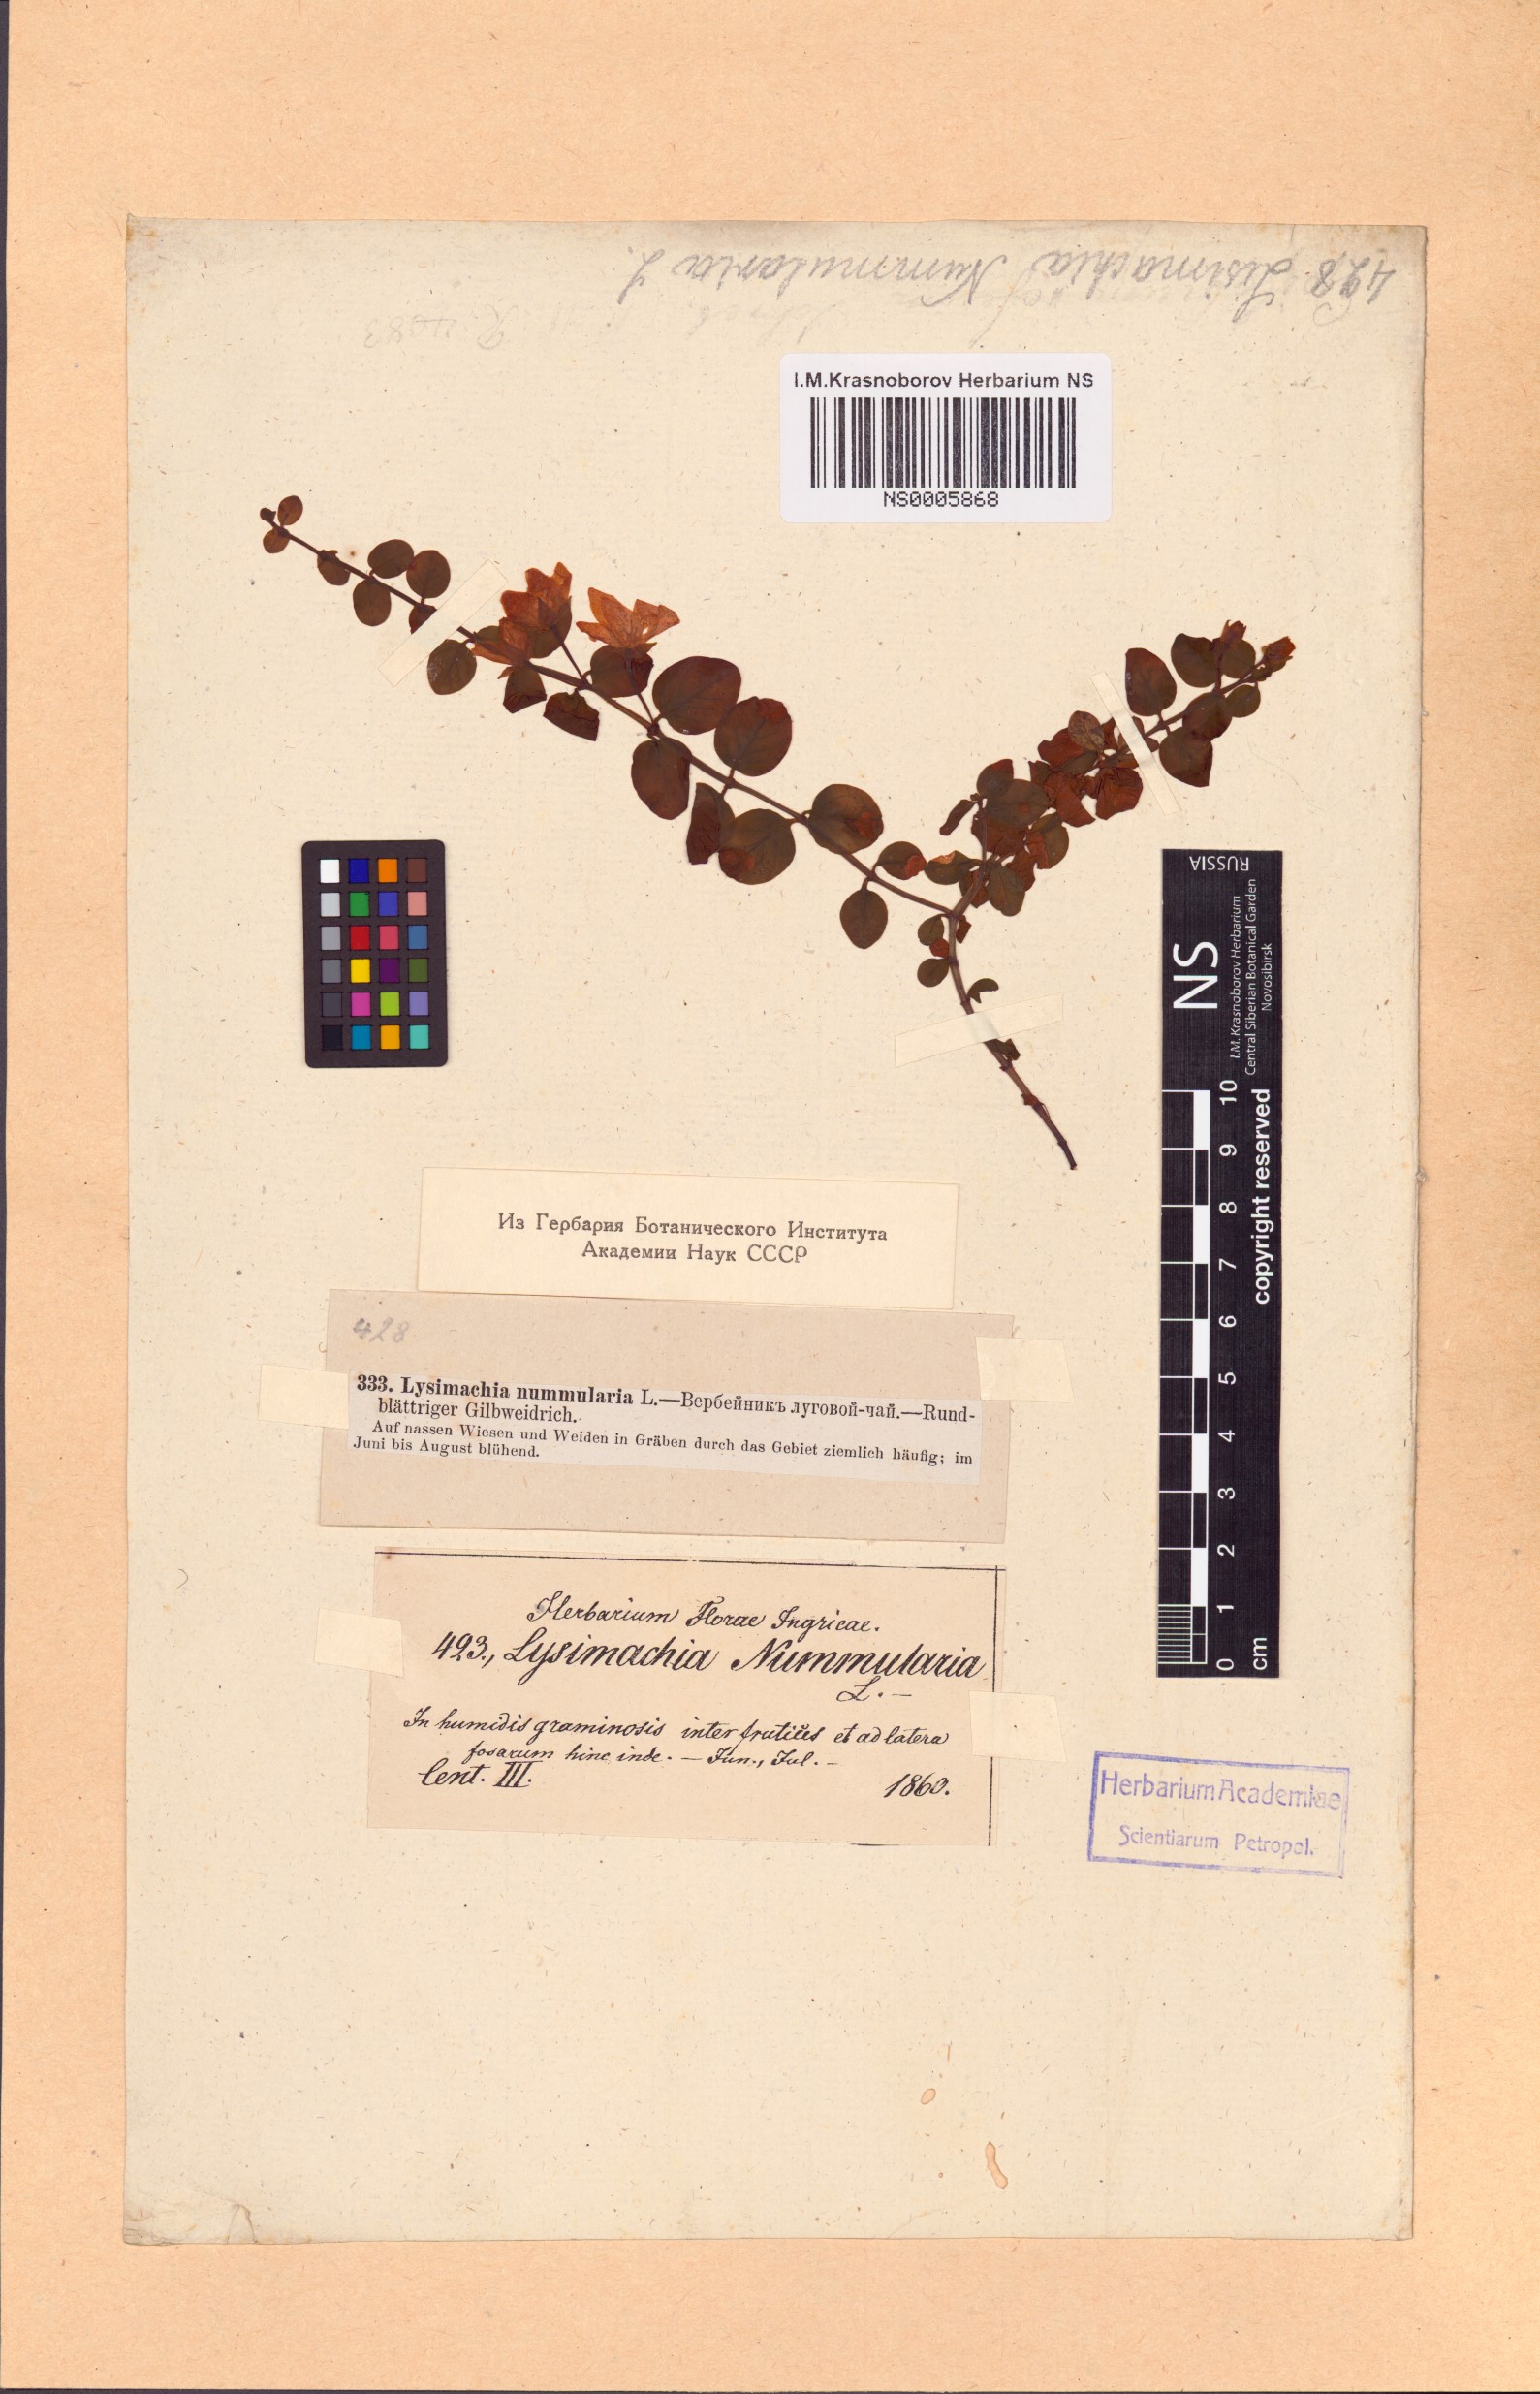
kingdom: Plantae
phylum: Tracheophyta
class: Magnoliopsida
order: Ericales
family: Primulaceae
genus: Lysimachia
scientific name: Lysimachia nummularia
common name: Moneywort
